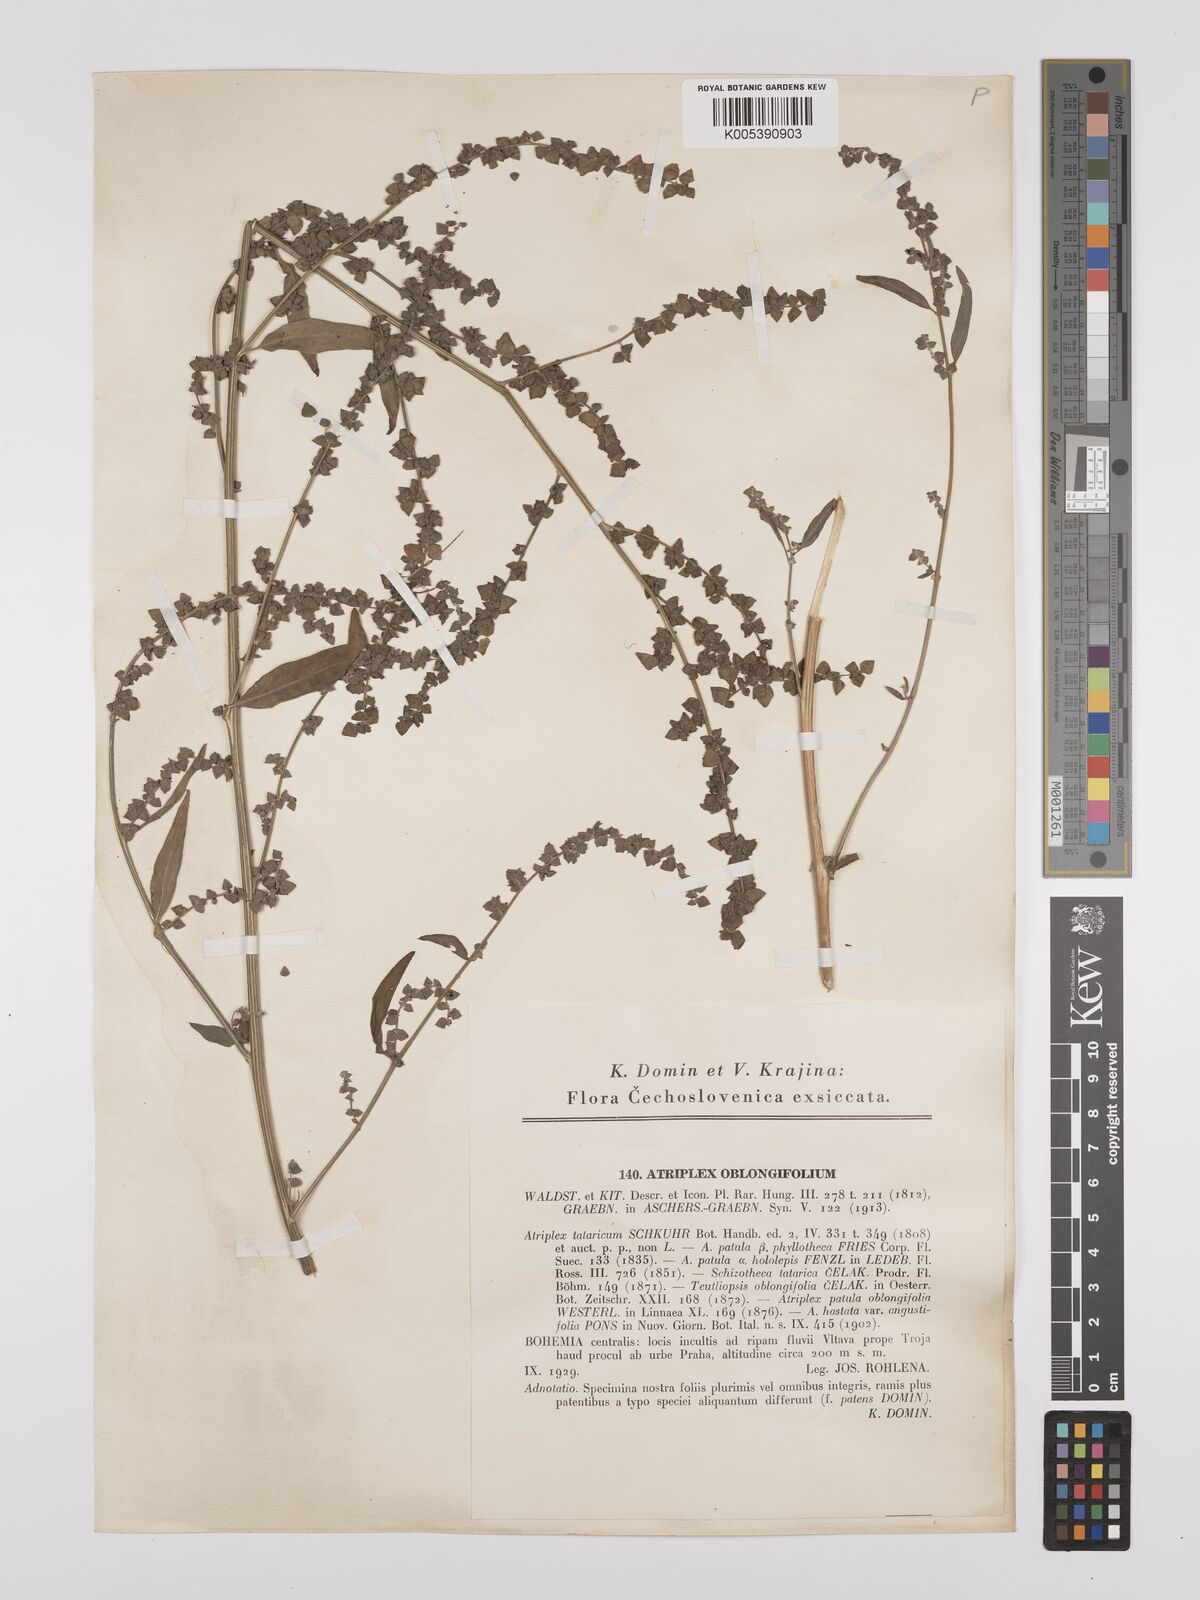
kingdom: Plantae
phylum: Tracheophyta
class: Magnoliopsida
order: Caryophyllales
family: Amaranthaceae
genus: Atriplex
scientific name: Atriplex
